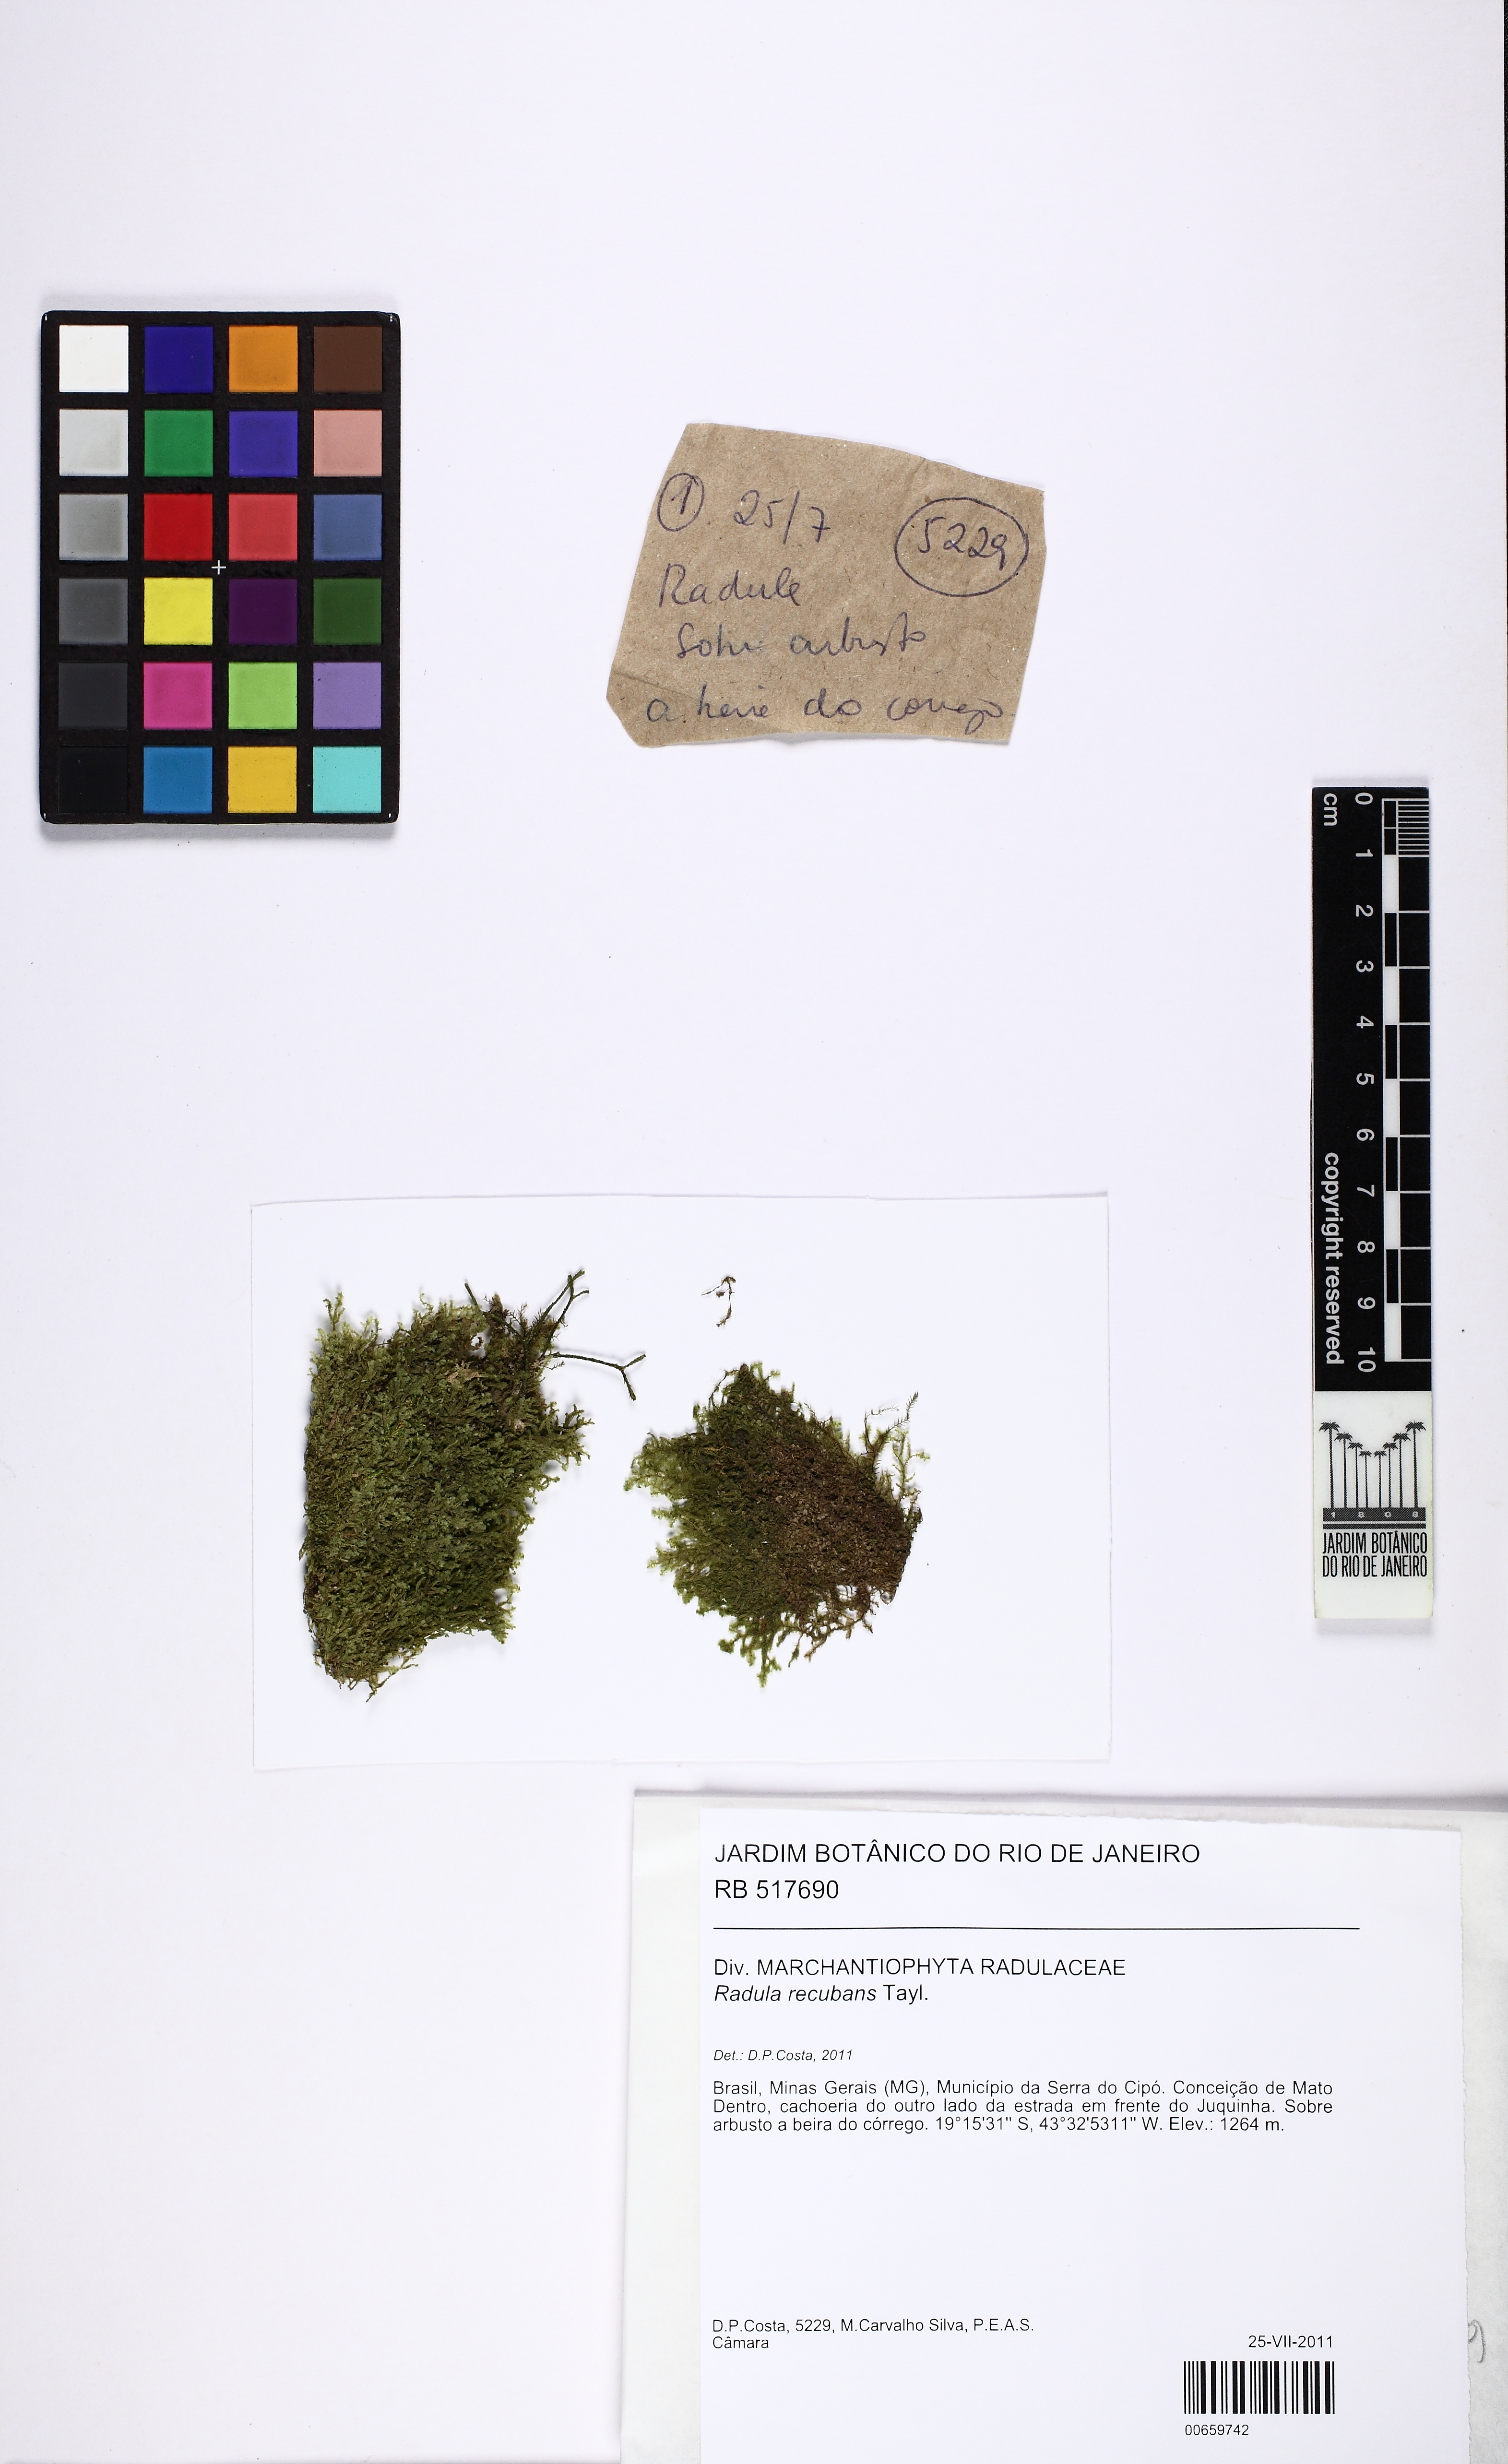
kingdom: Plantae
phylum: Marchantiophyta
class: Jungermanniopsida
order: Porellales
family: Radulaceae
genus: Radula
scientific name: Radula recubans
